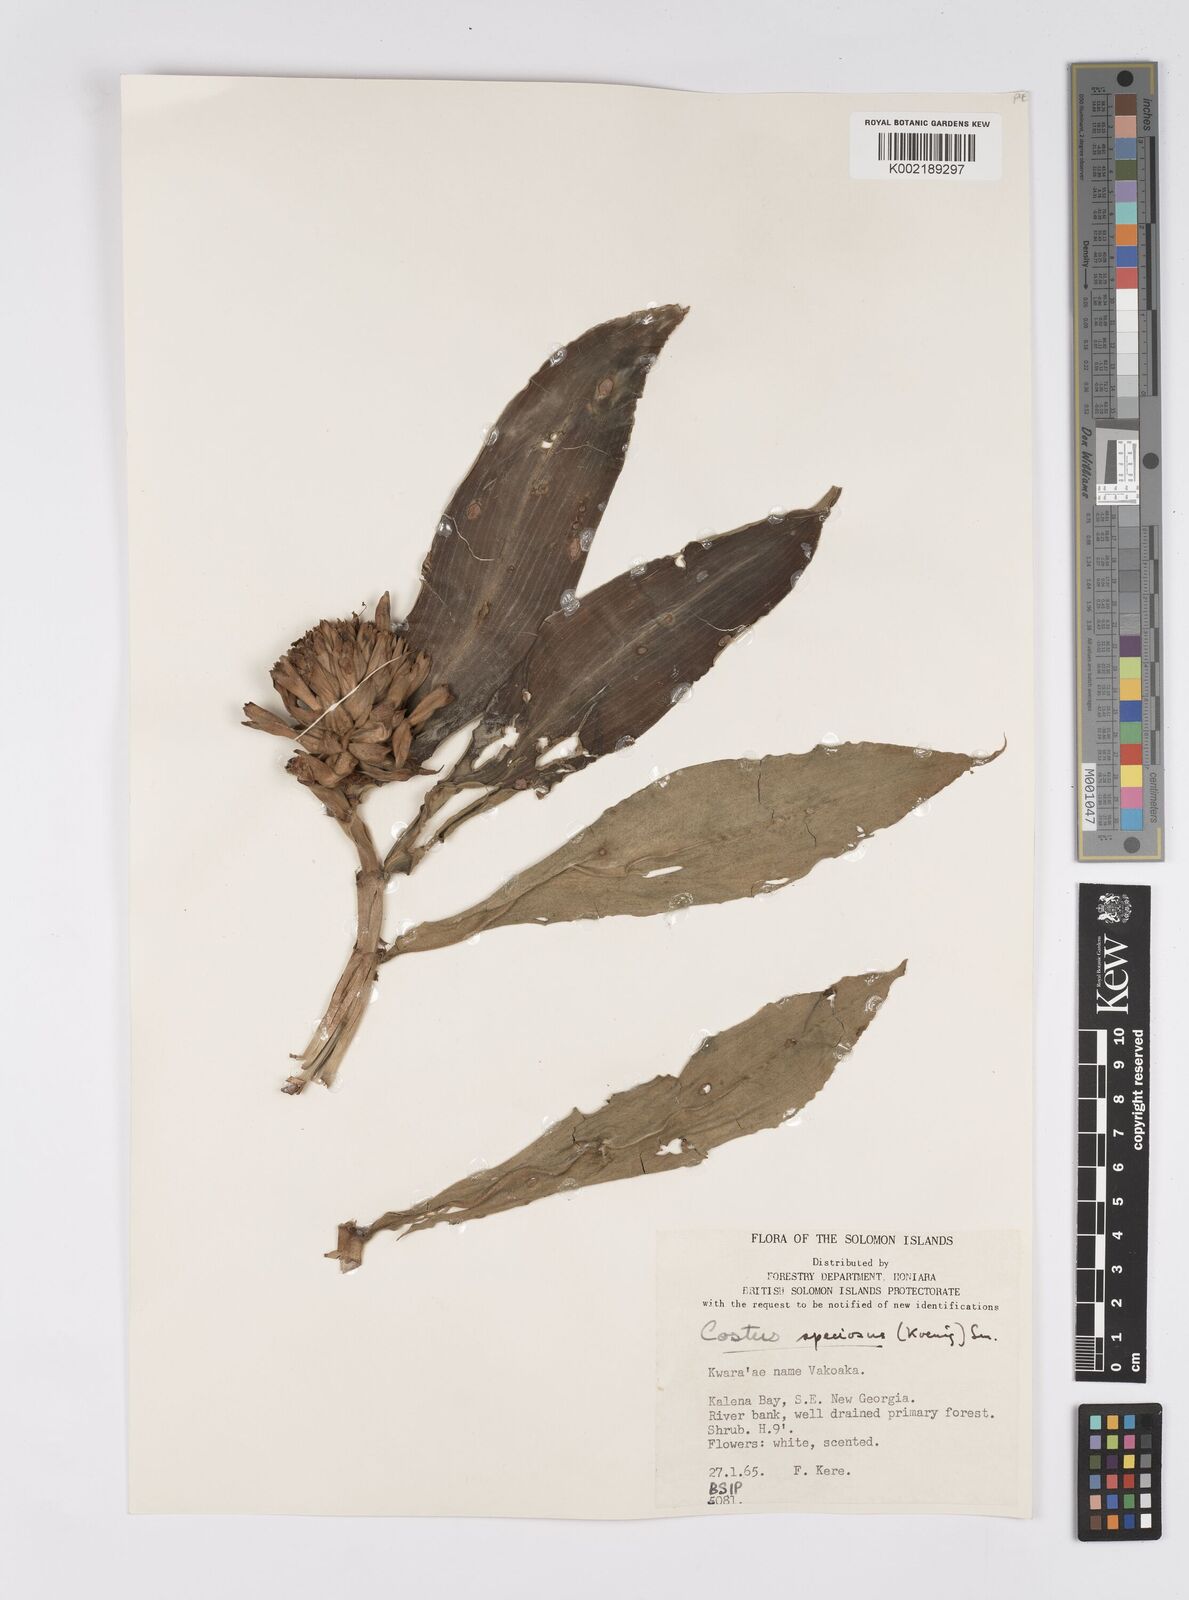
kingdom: Plantae
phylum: Tracheophyta
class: Liliopsida
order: Zingiberales
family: Costaceae
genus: Hellenia
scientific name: Hellenia speciosa
